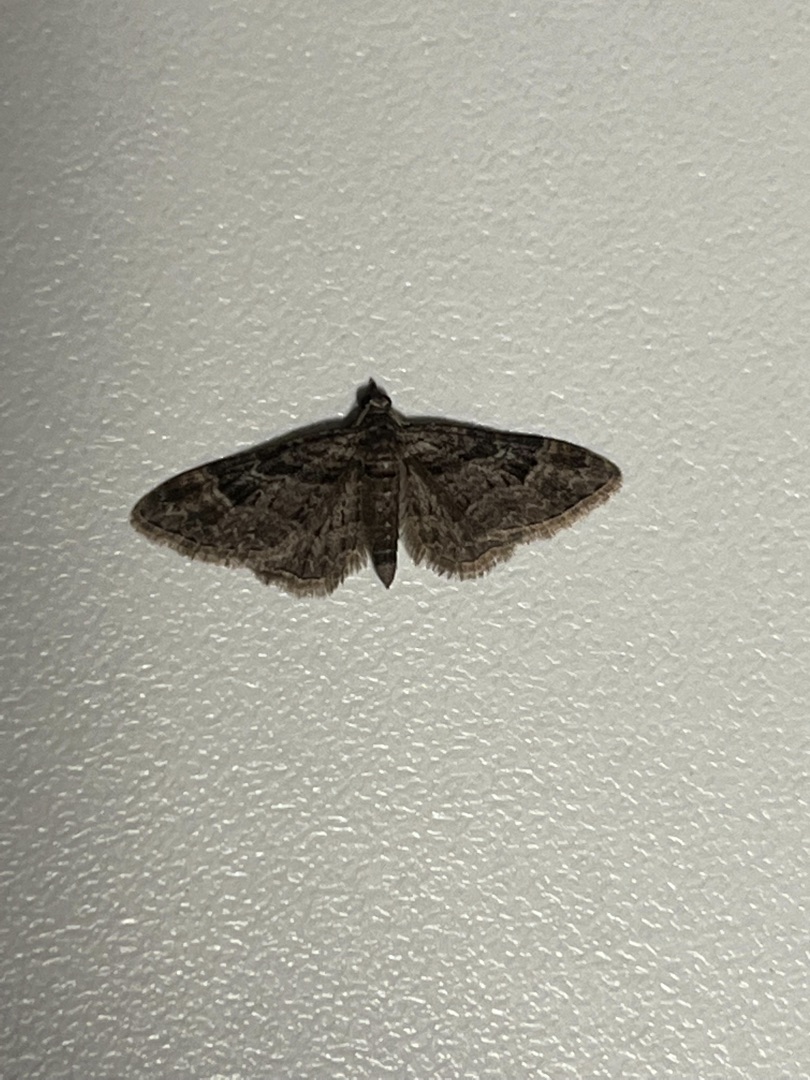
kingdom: Animalia
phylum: Arthropoda
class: Insecta
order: Lepidoptera
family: Geometridae
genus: Gymnoscelis
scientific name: Gymnoscelis rufifasciata
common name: Rødbåndet dværgmåler
